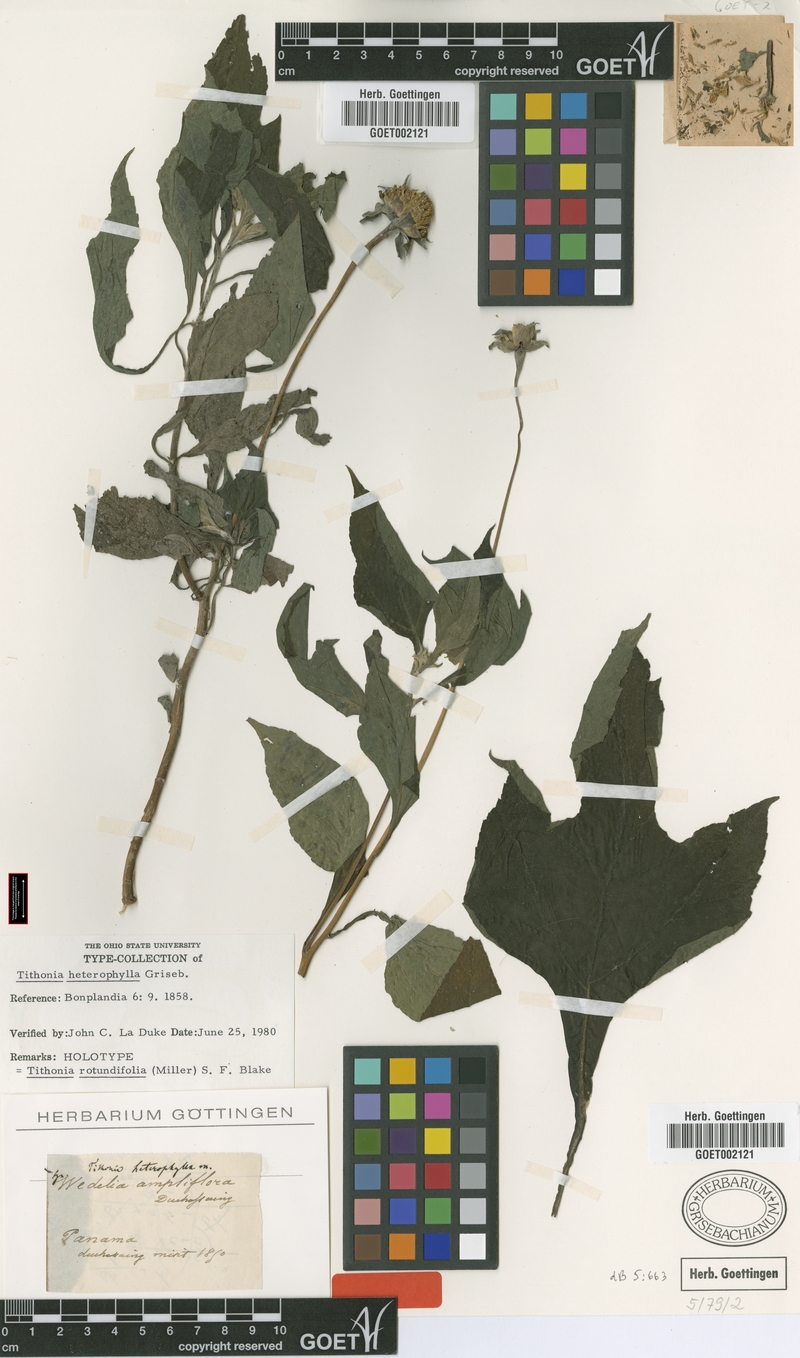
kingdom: Plantae
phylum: Tracheophyta
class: Magnoliopsida
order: Asterales
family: Asteraceae
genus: Tithonia
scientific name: Tithonia rotundifolia
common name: Sunflower
